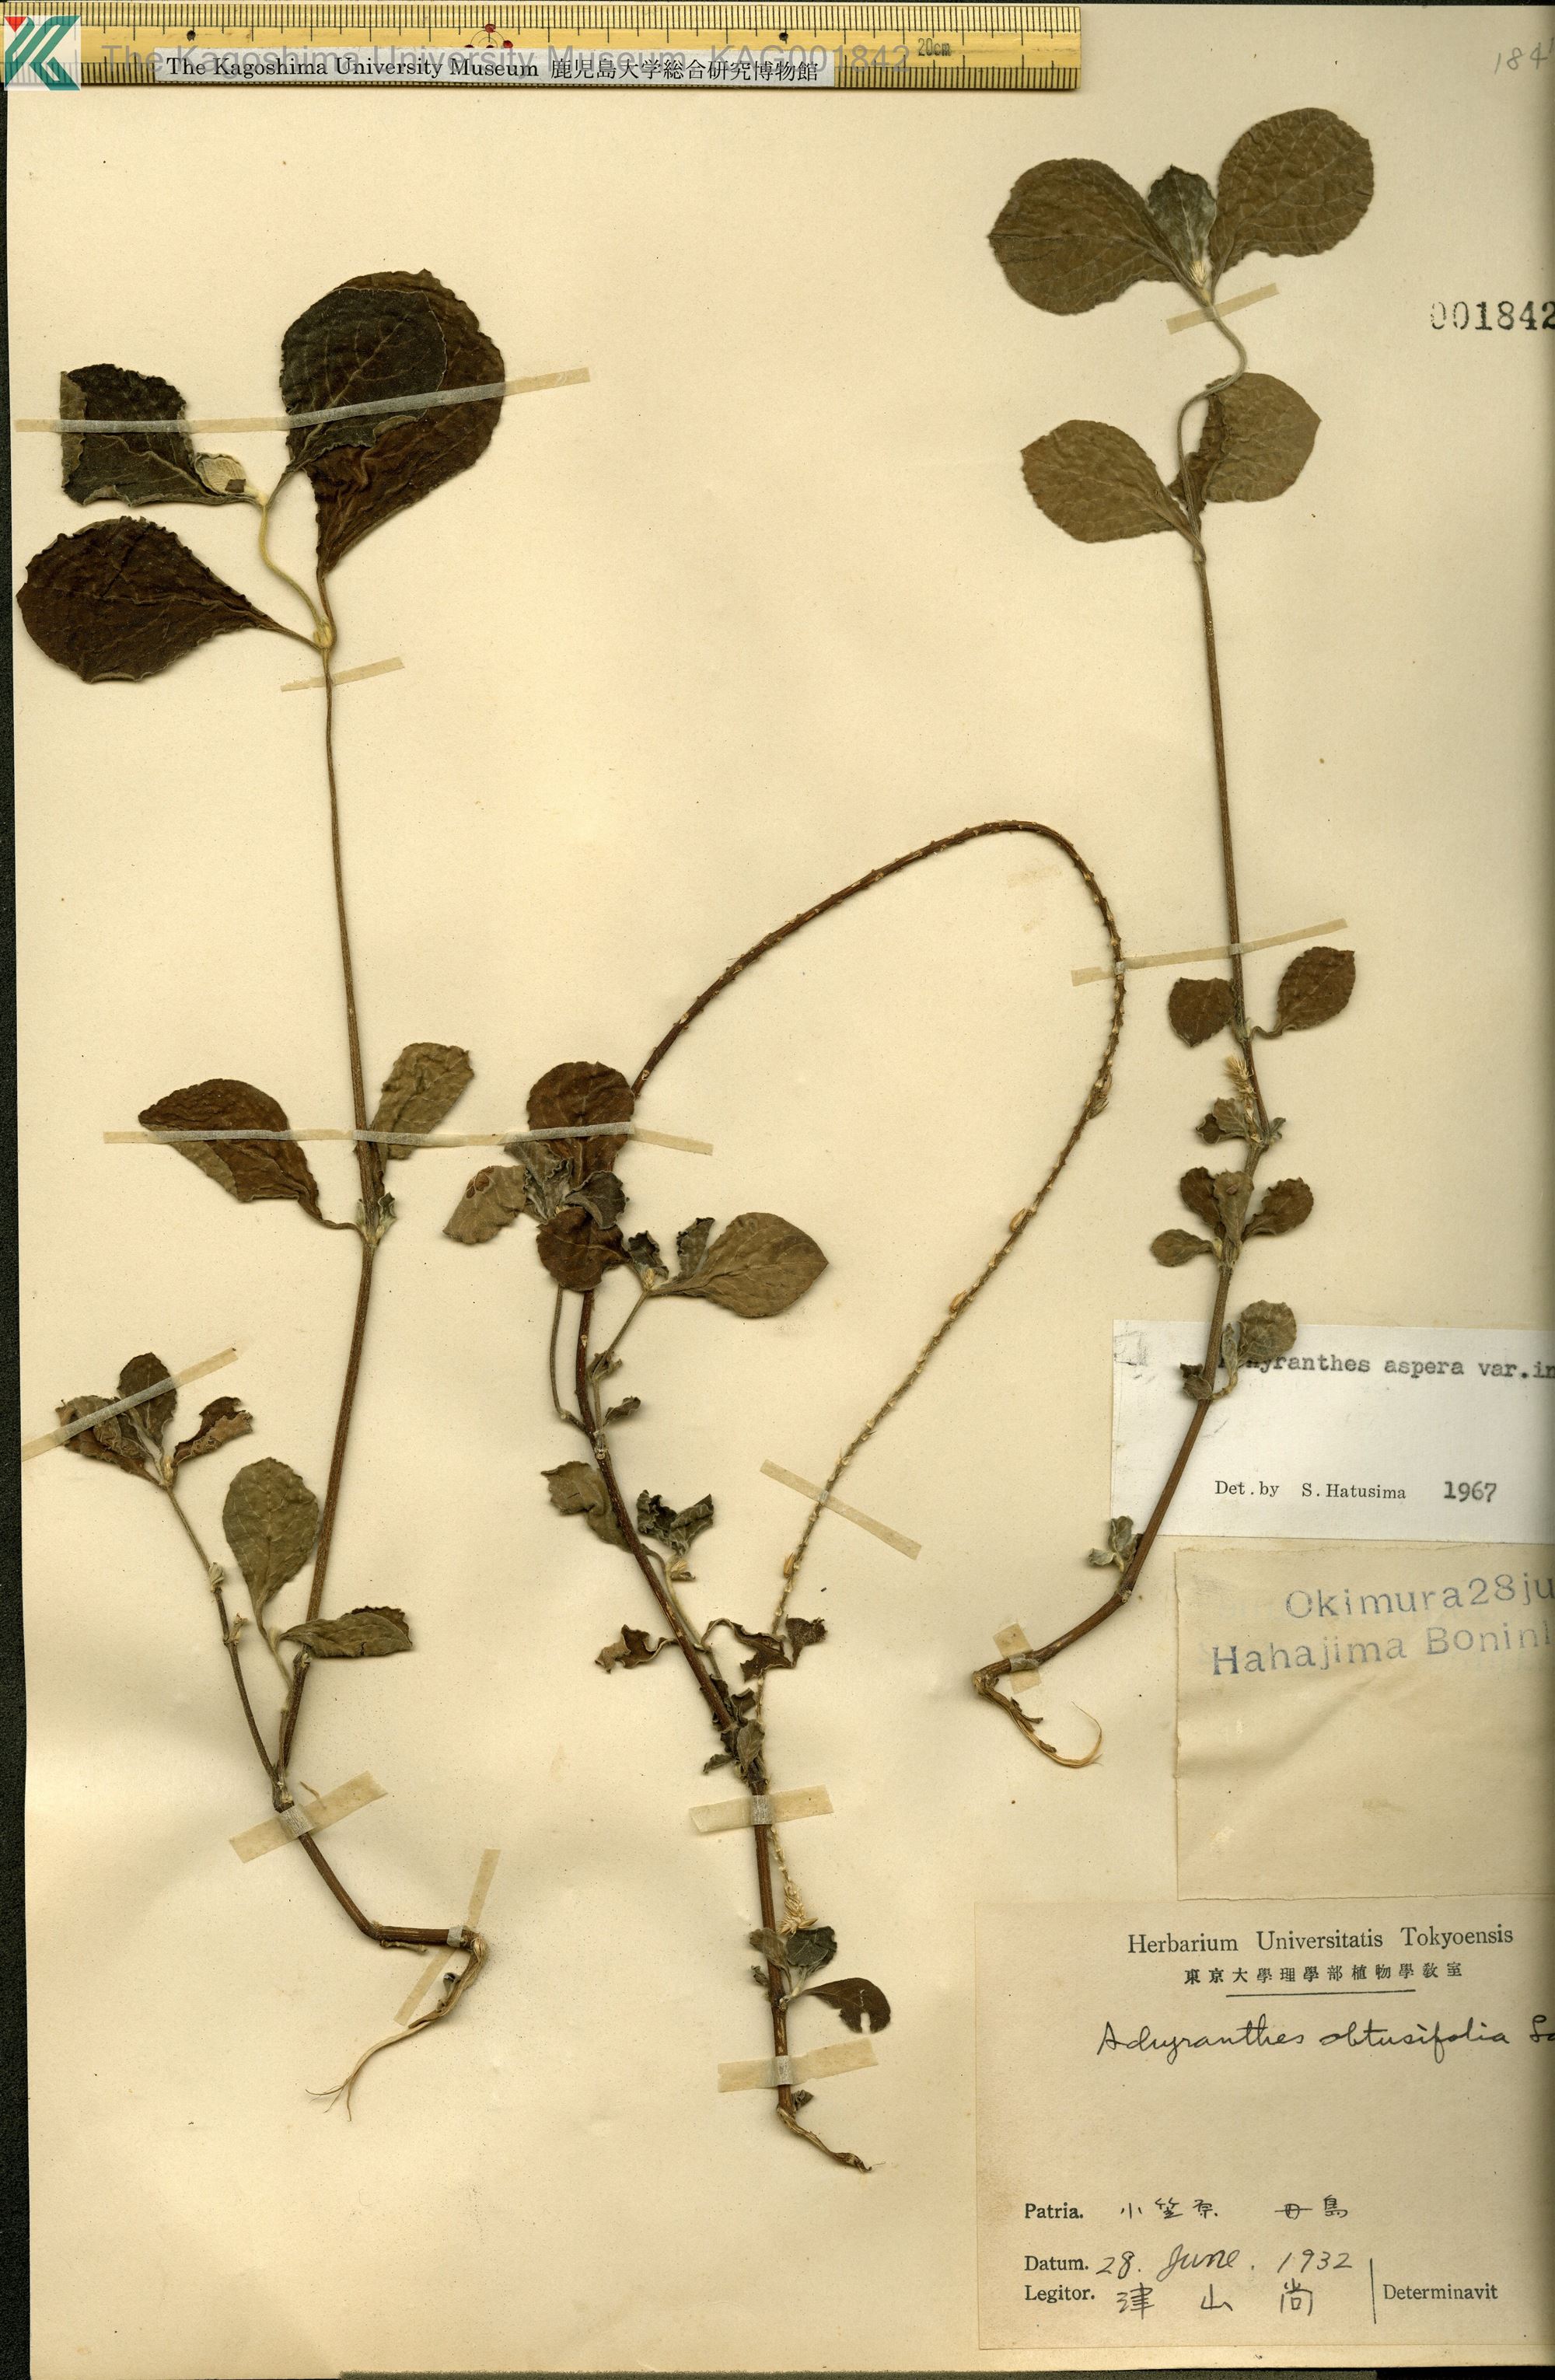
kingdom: Plantae
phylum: Tracheophyta
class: Magnoliopsida
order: Caryophyllales
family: Amaranthaceae
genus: Achyranthes
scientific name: Achyranthes aspera
